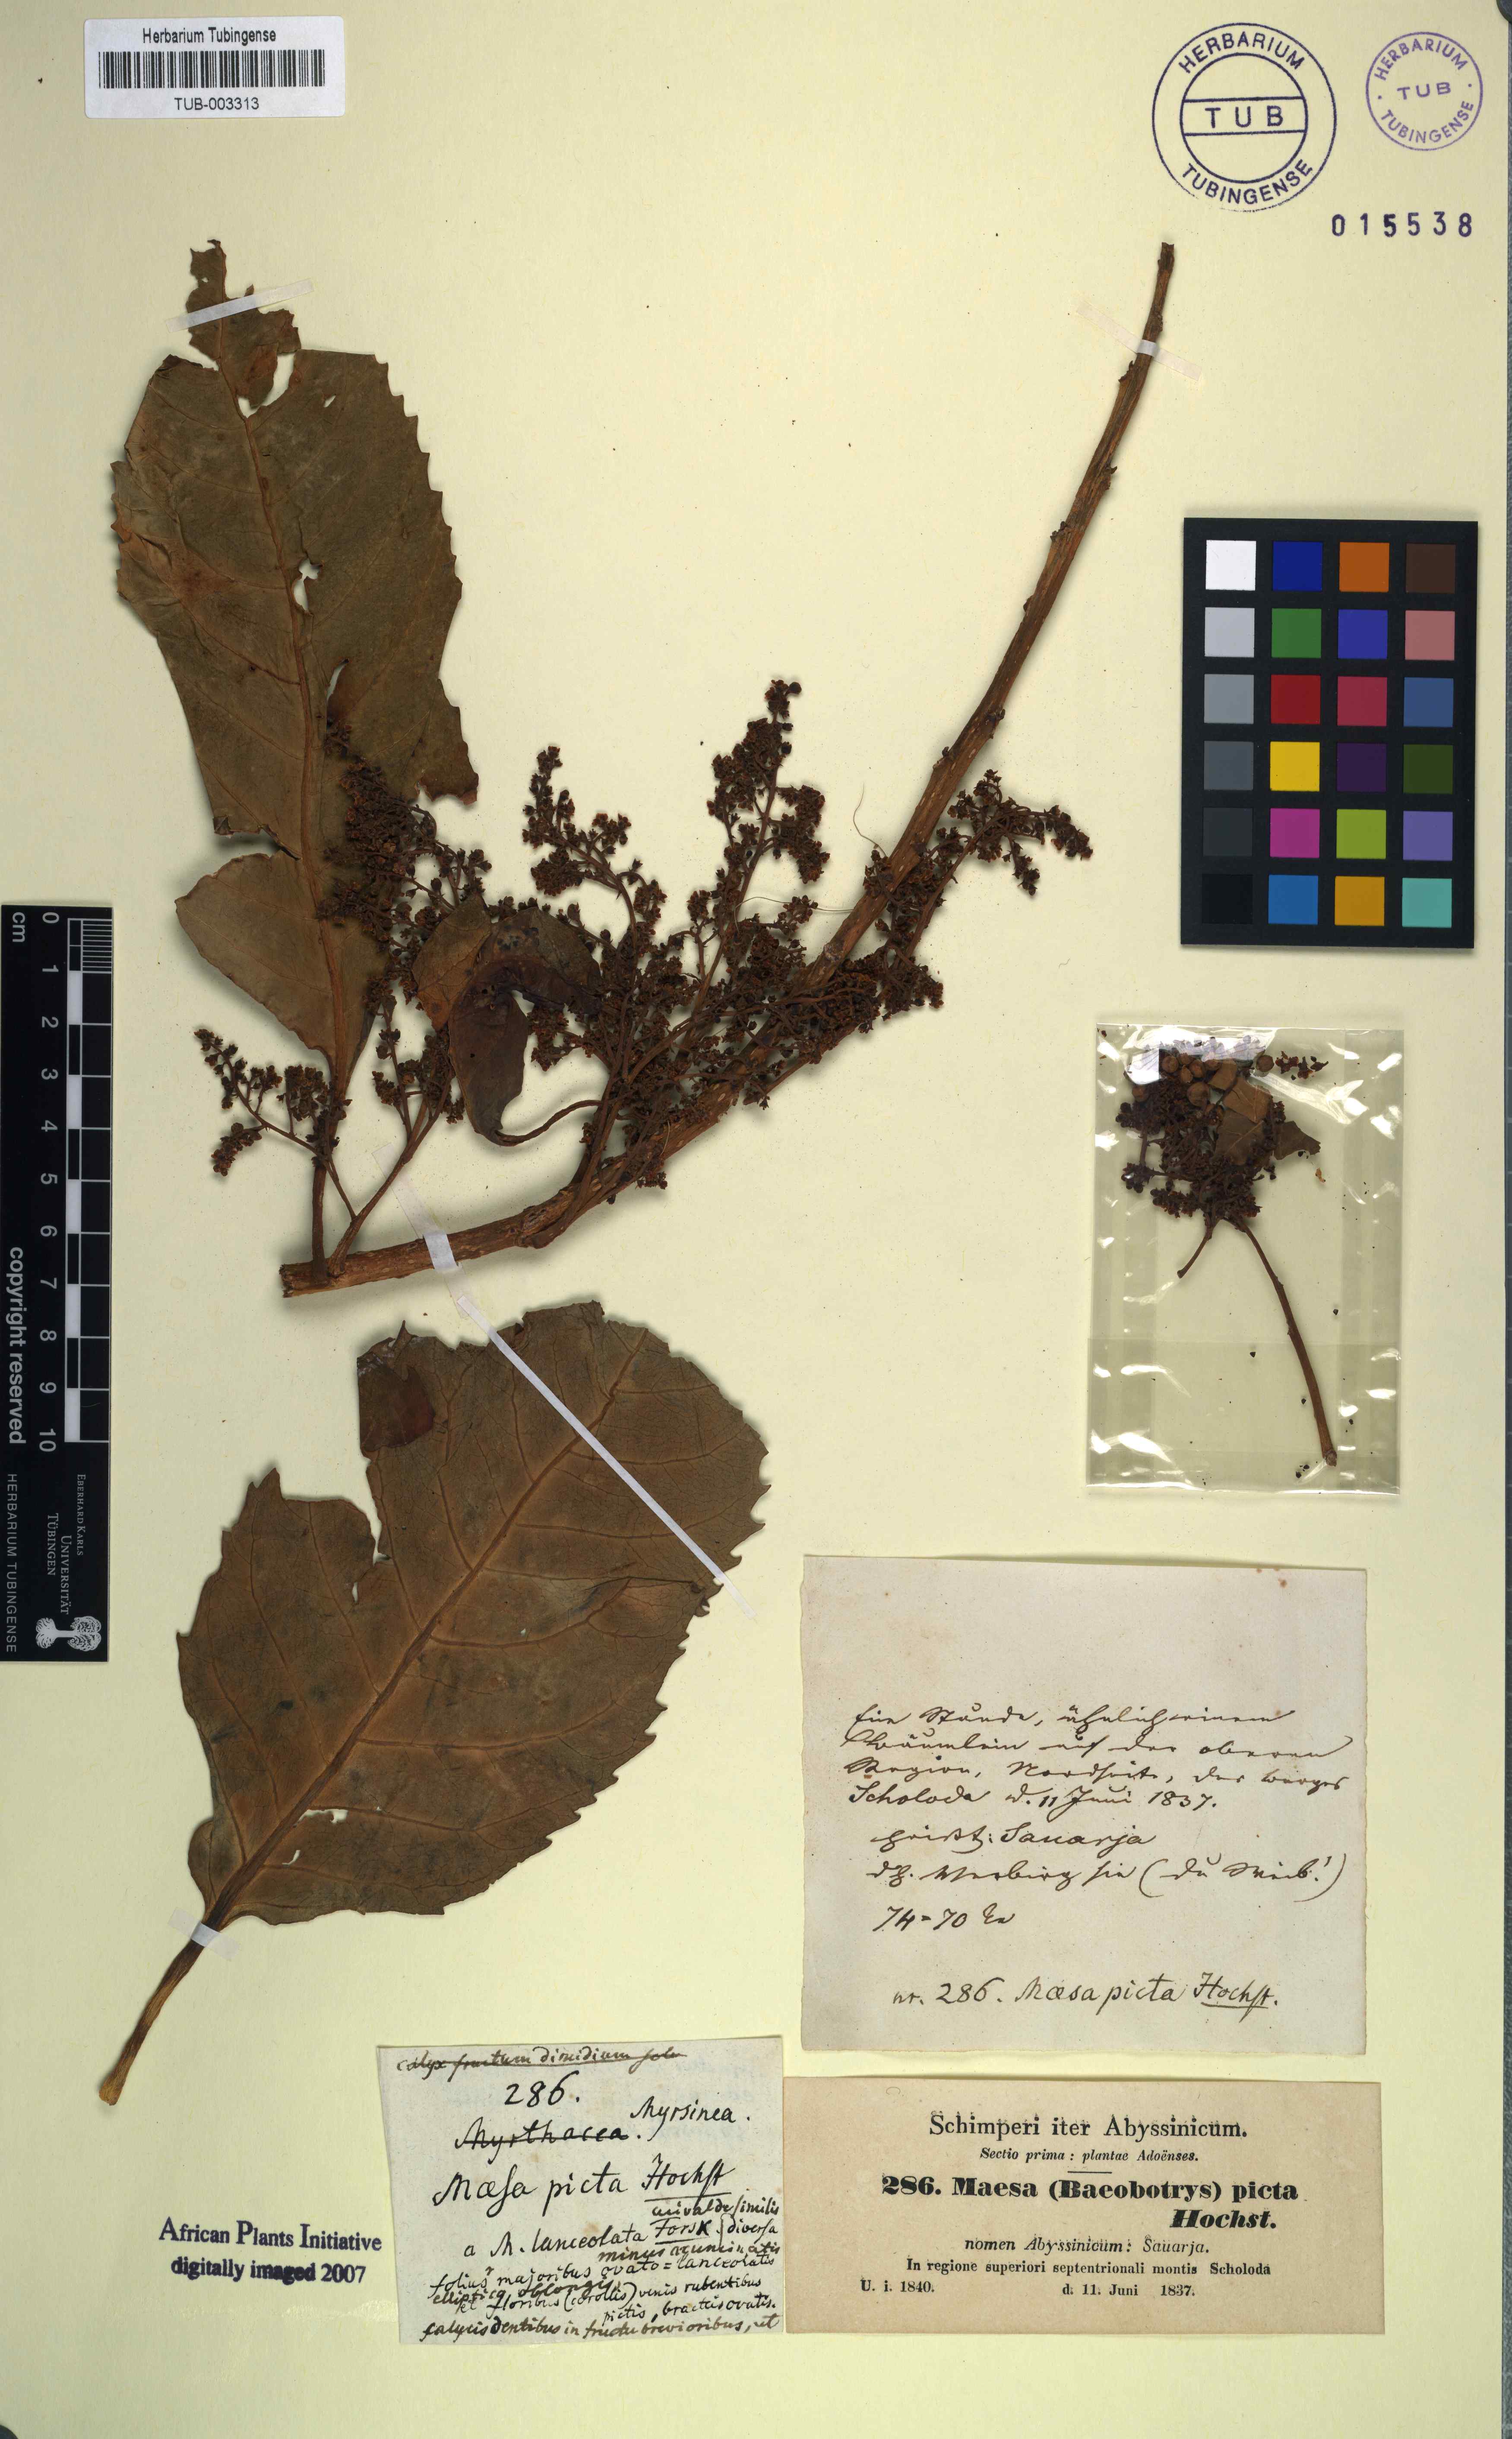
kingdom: Plantae
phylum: Tracheophyta
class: Magnoliopsida
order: Ericales
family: Primulaceae
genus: Maesa
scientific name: Maesa lanceolata
